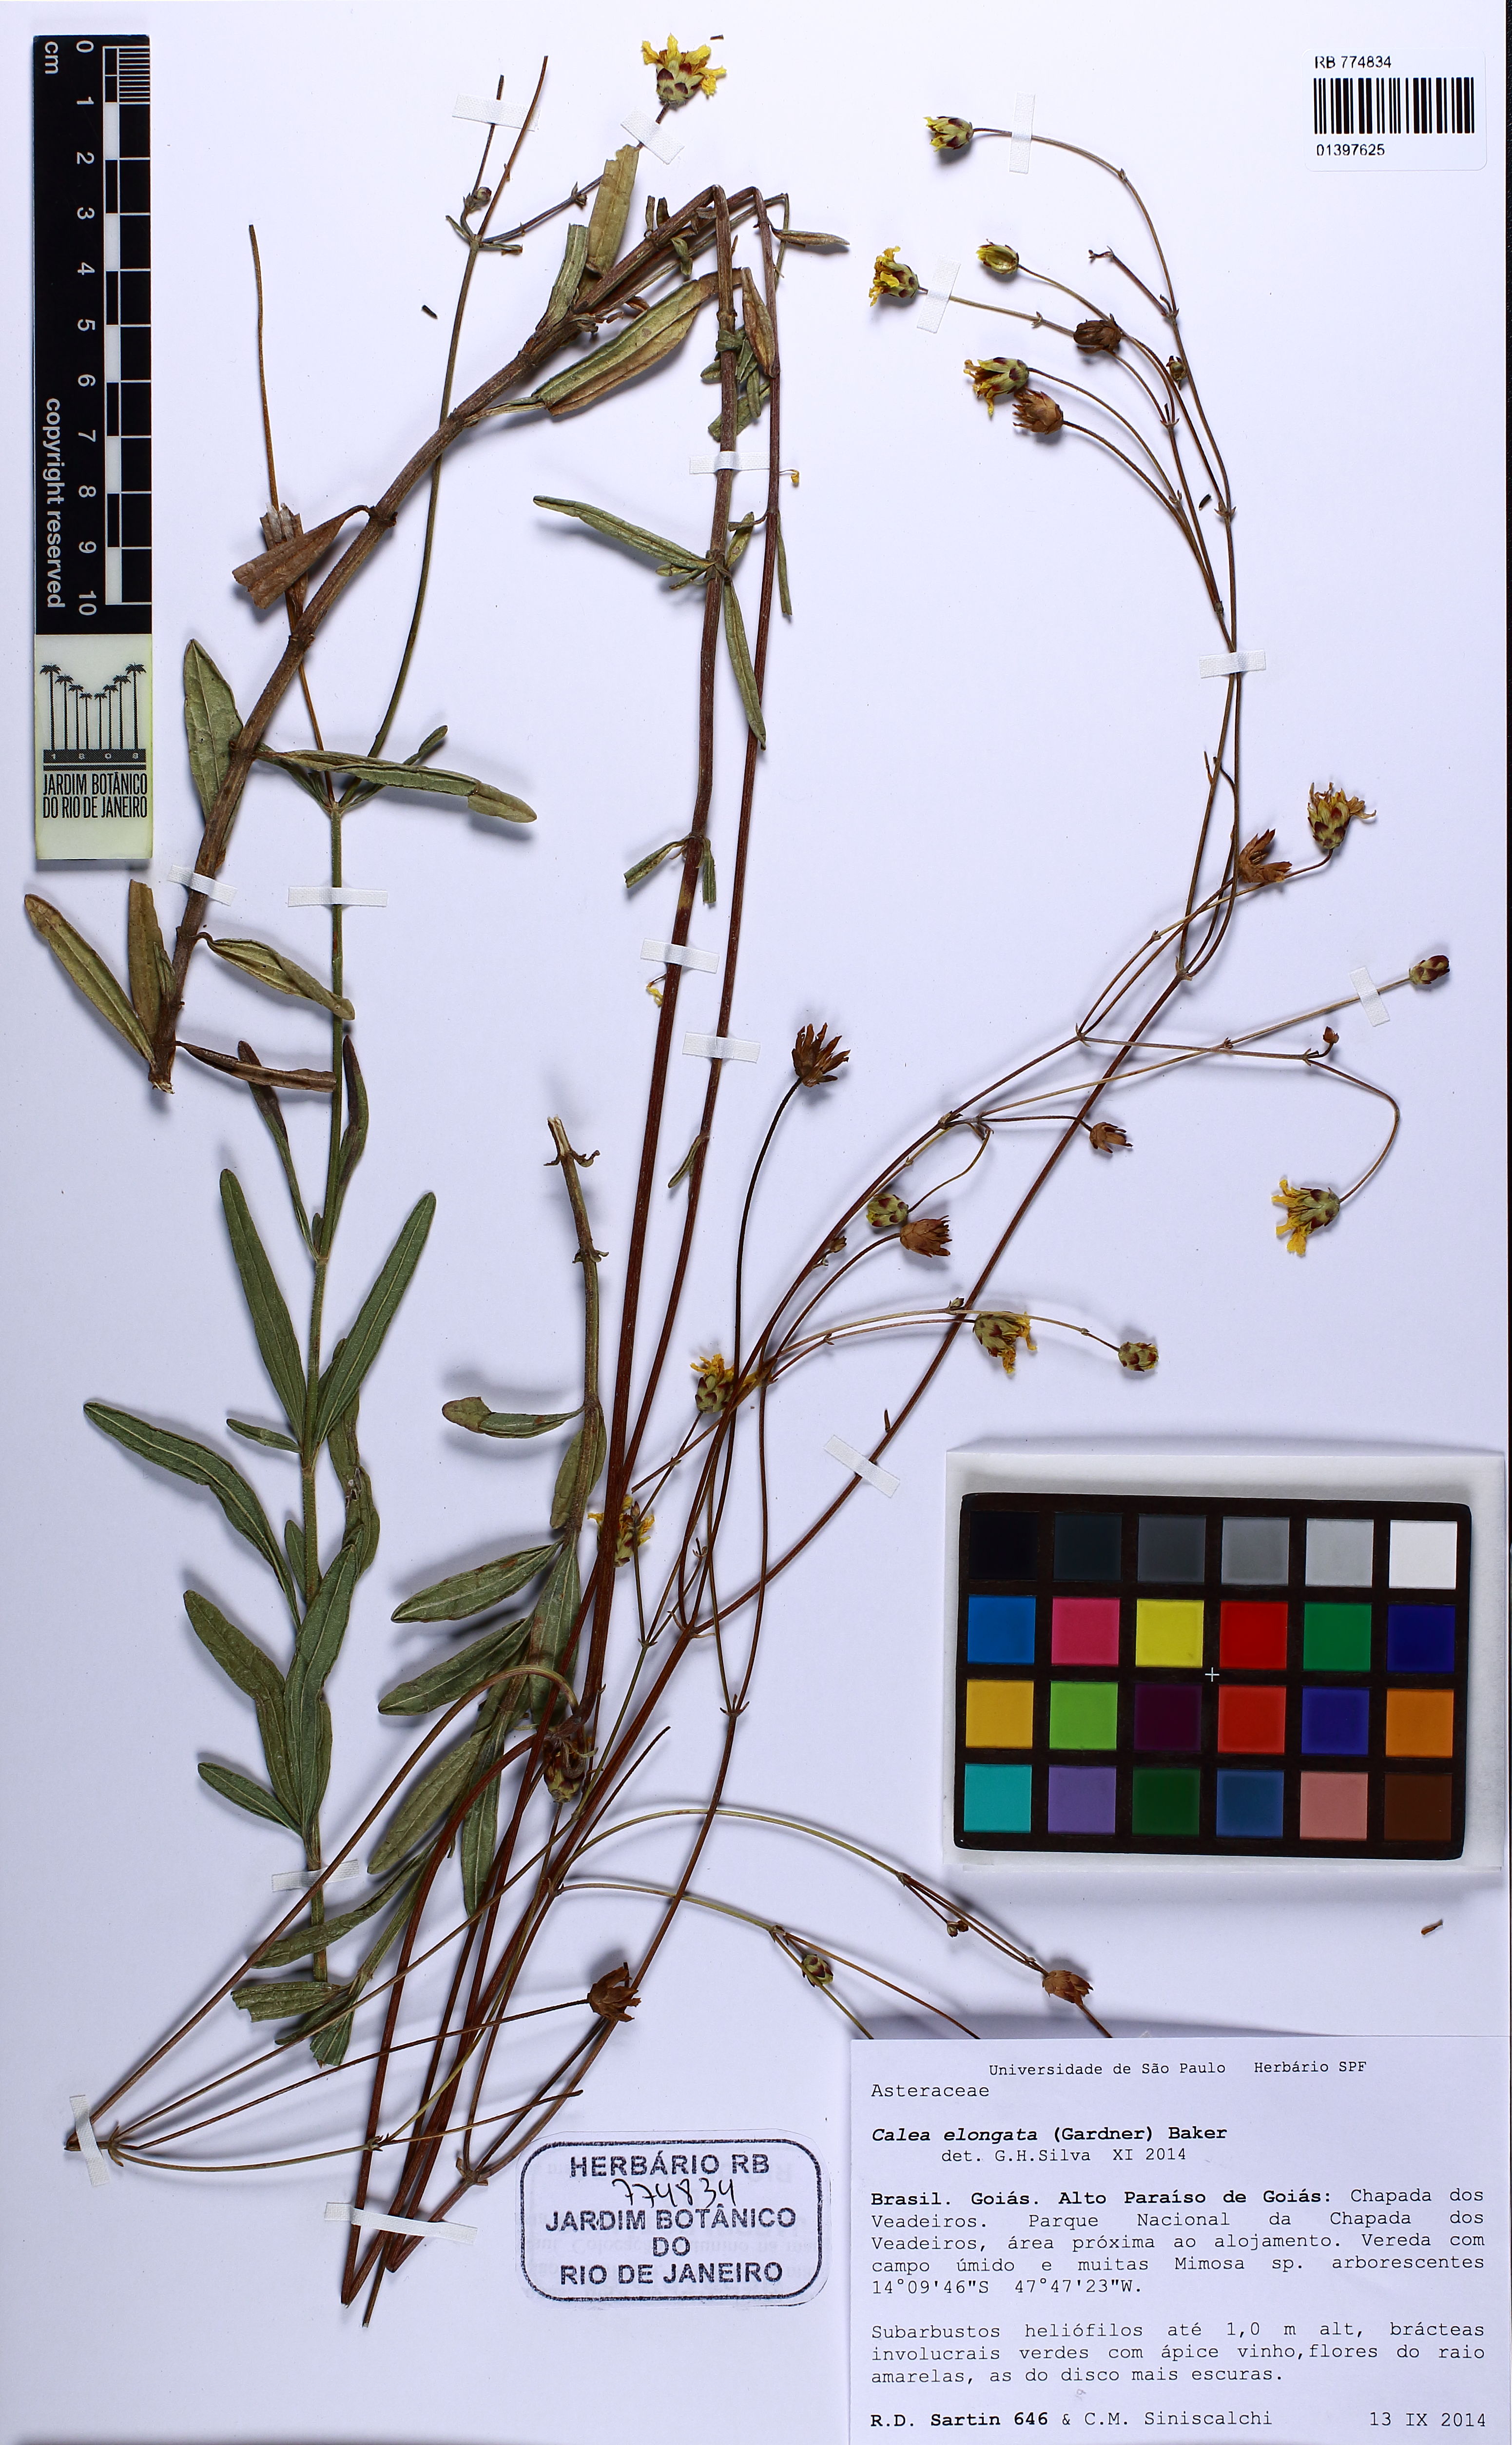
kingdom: Plantae
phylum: Tracheophyta
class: Magnoliopsida
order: Asterales
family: Asteraceae
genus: Calea
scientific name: Calea elongata
